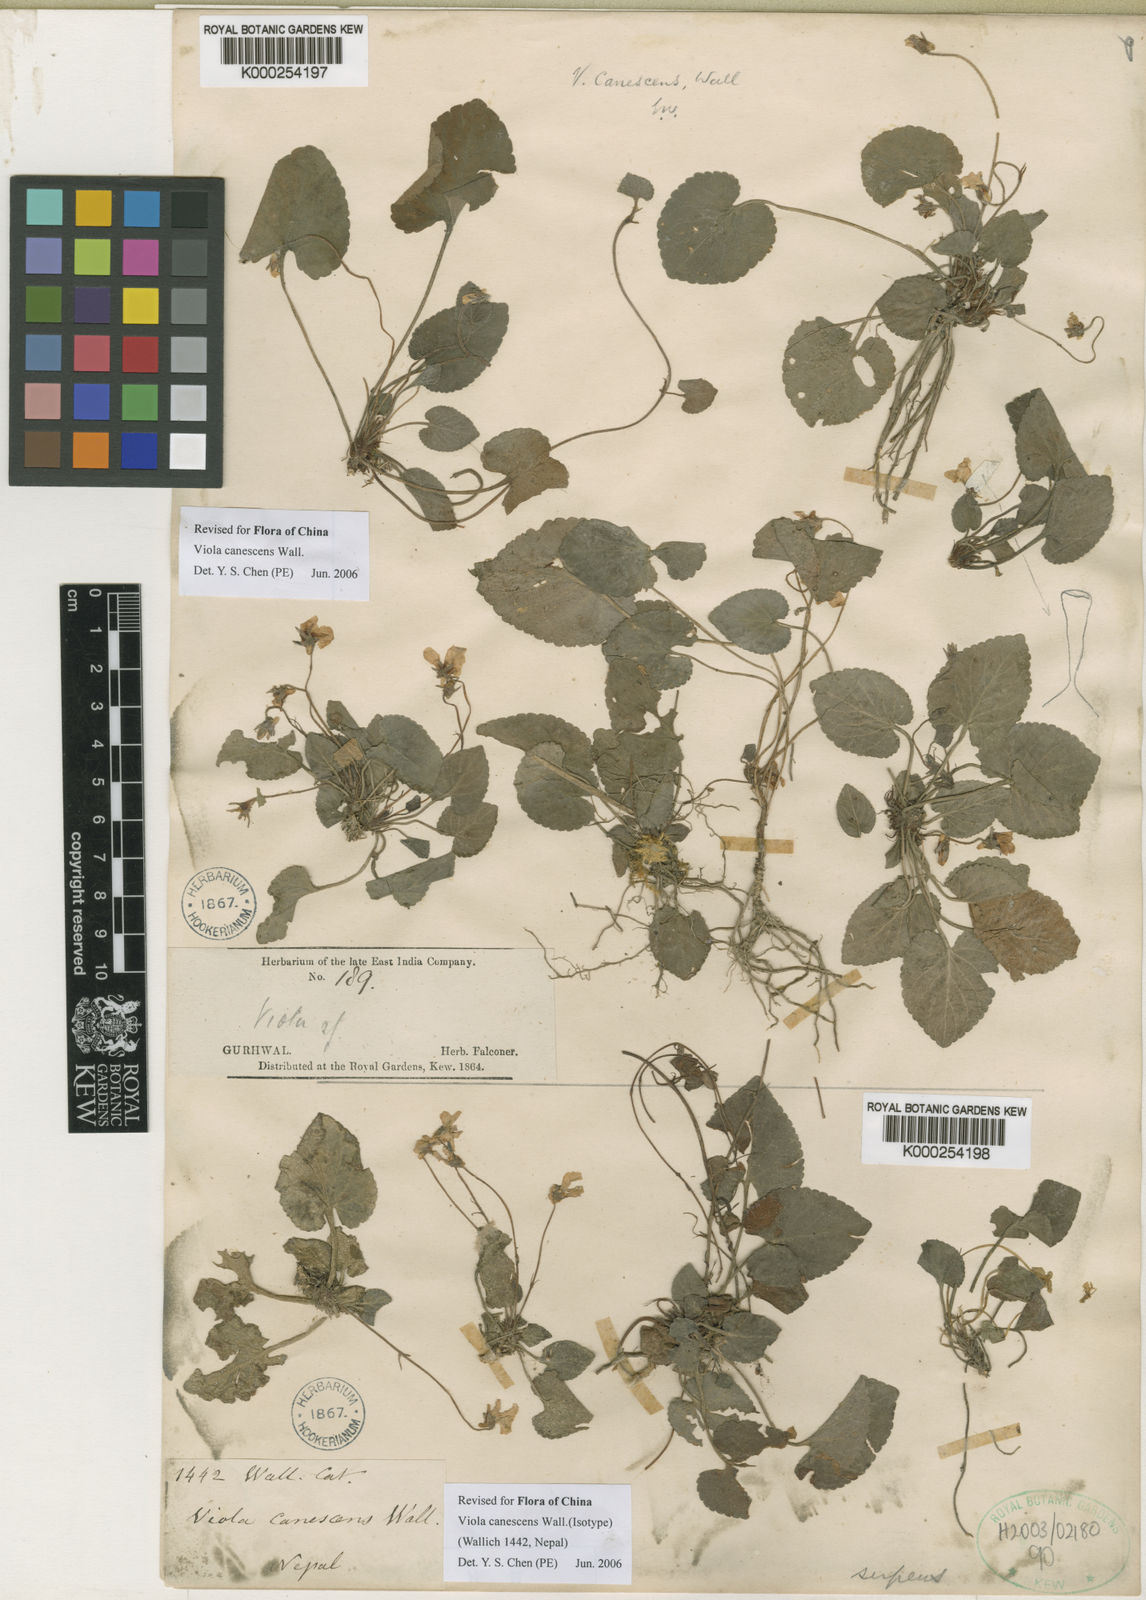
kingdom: Plantae
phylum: Tracheophyta
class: Magnoliopsida
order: Malpighiales
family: Violaceae
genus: Viola
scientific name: Viola canescens
